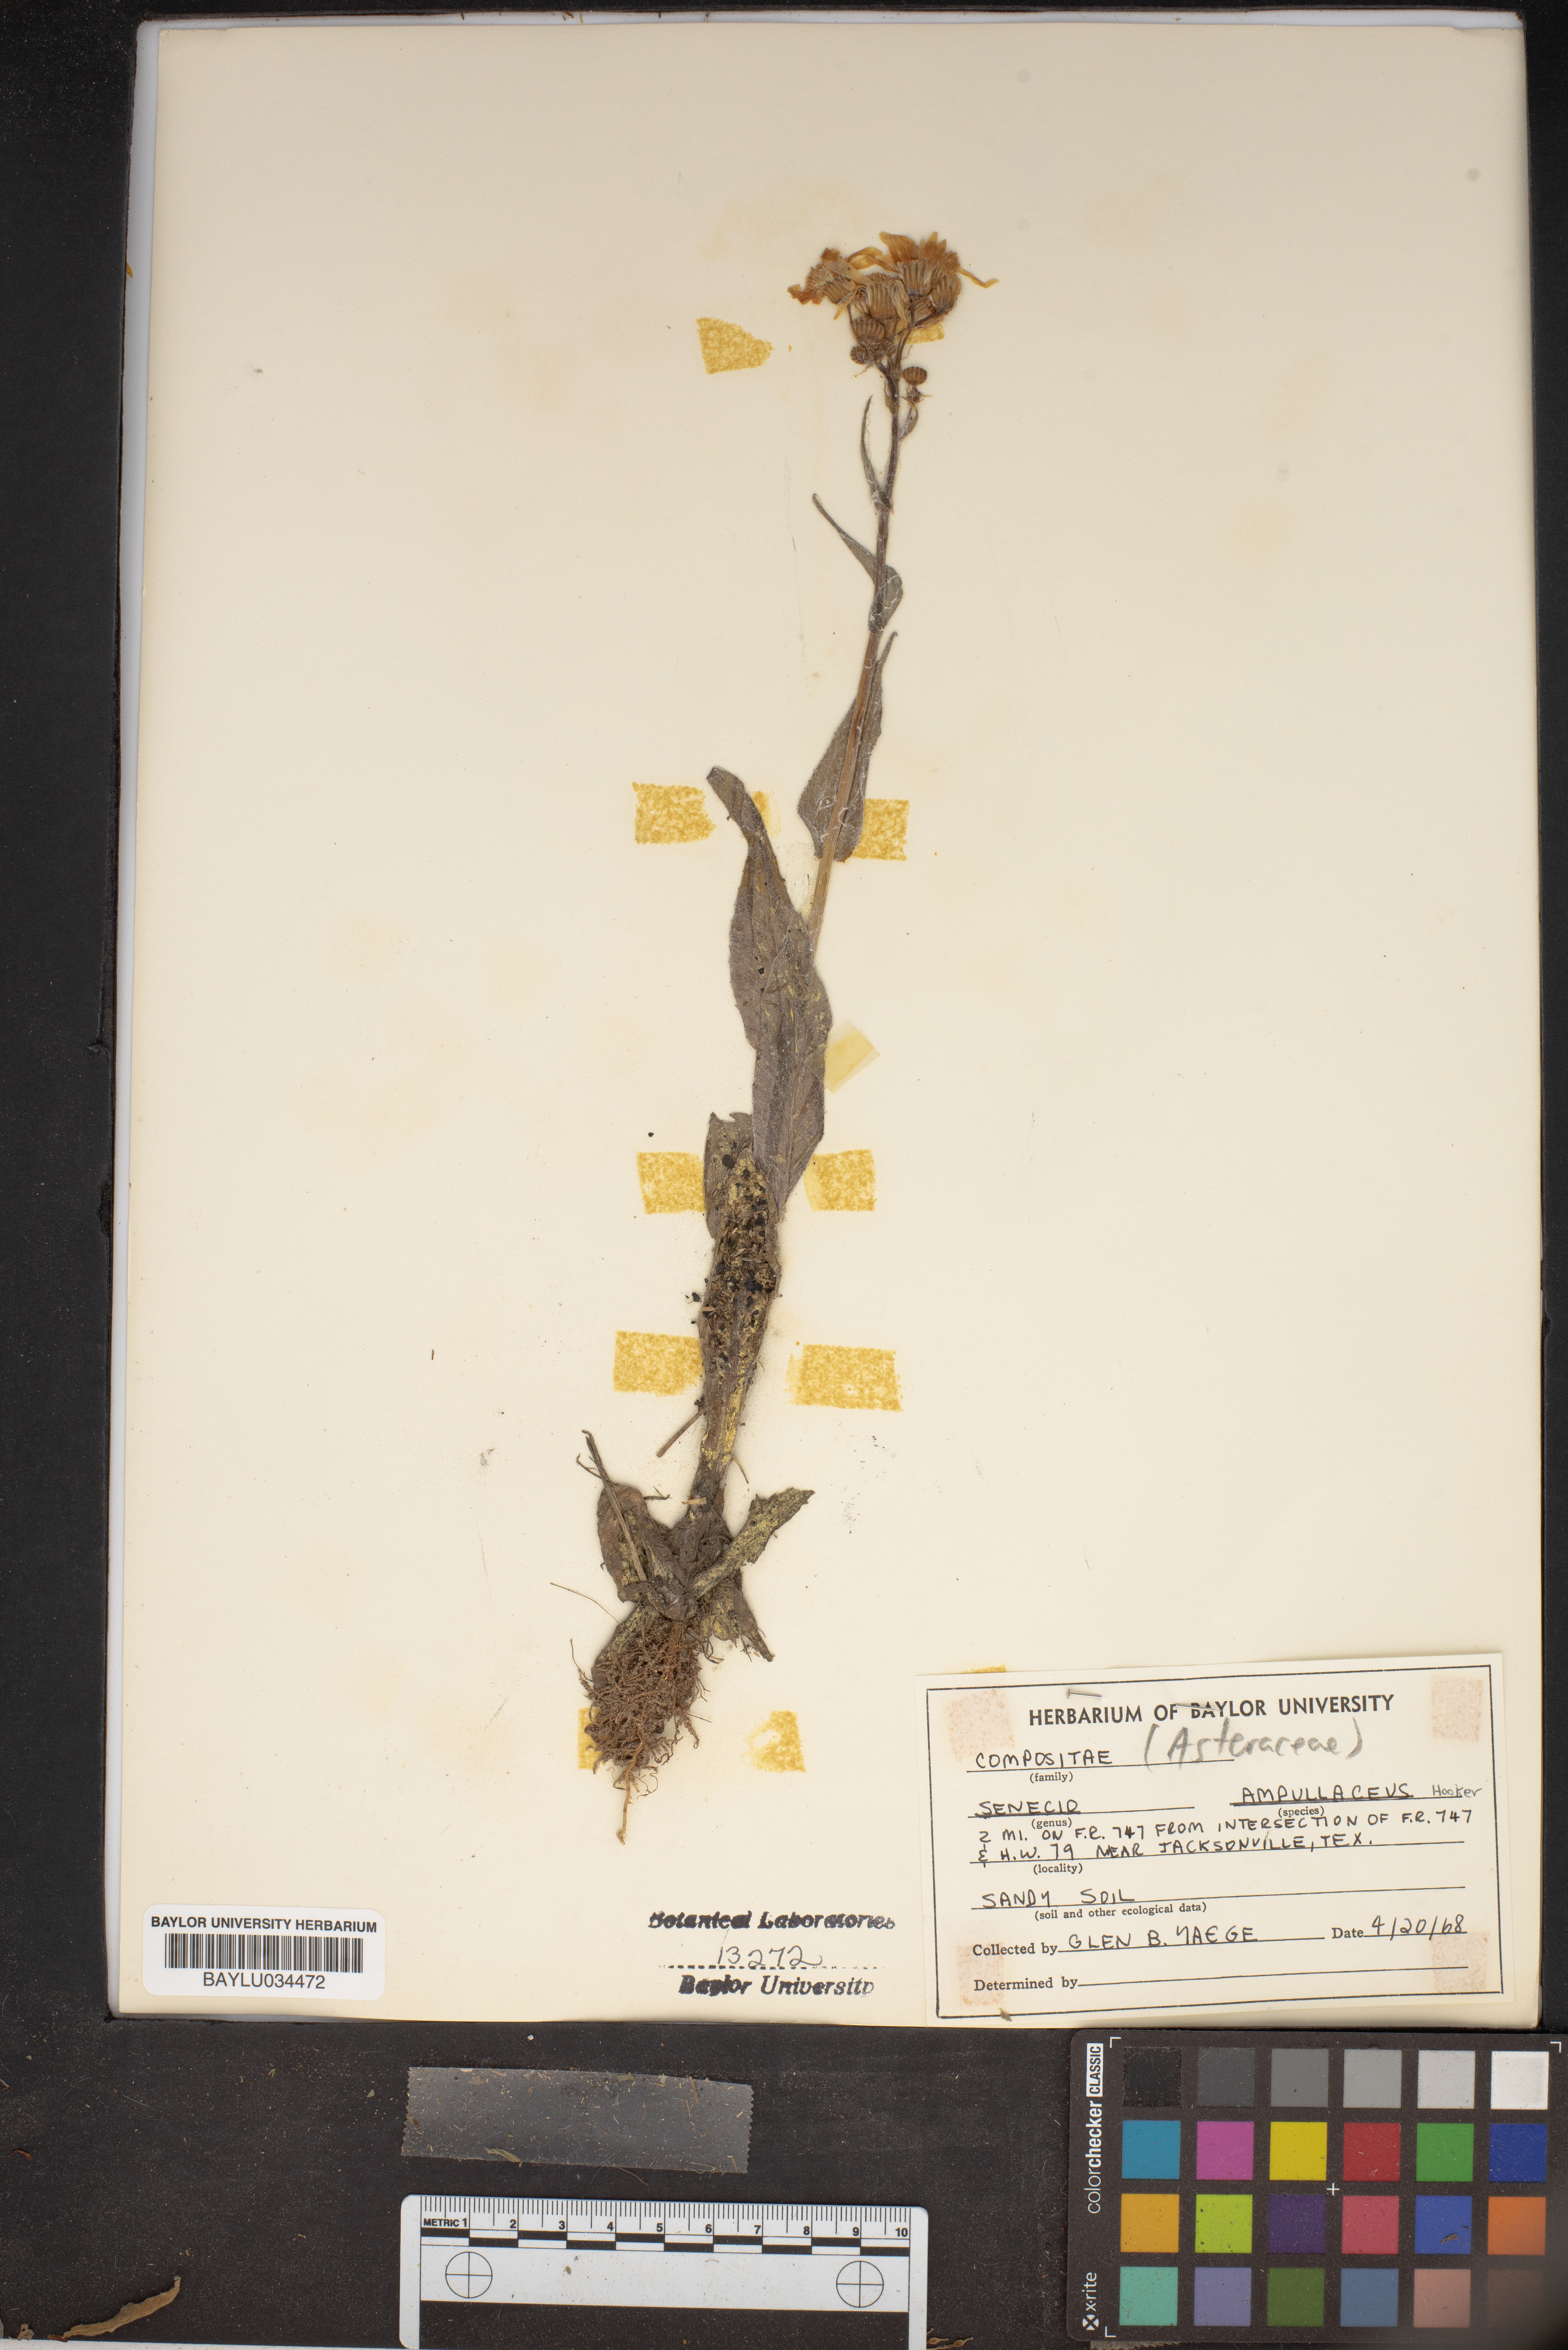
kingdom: Plantae
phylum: Tracheophyta
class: Magnoliopsida
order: Asterales
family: Asteraceae
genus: Senecio
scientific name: Senecio ampullaceus
